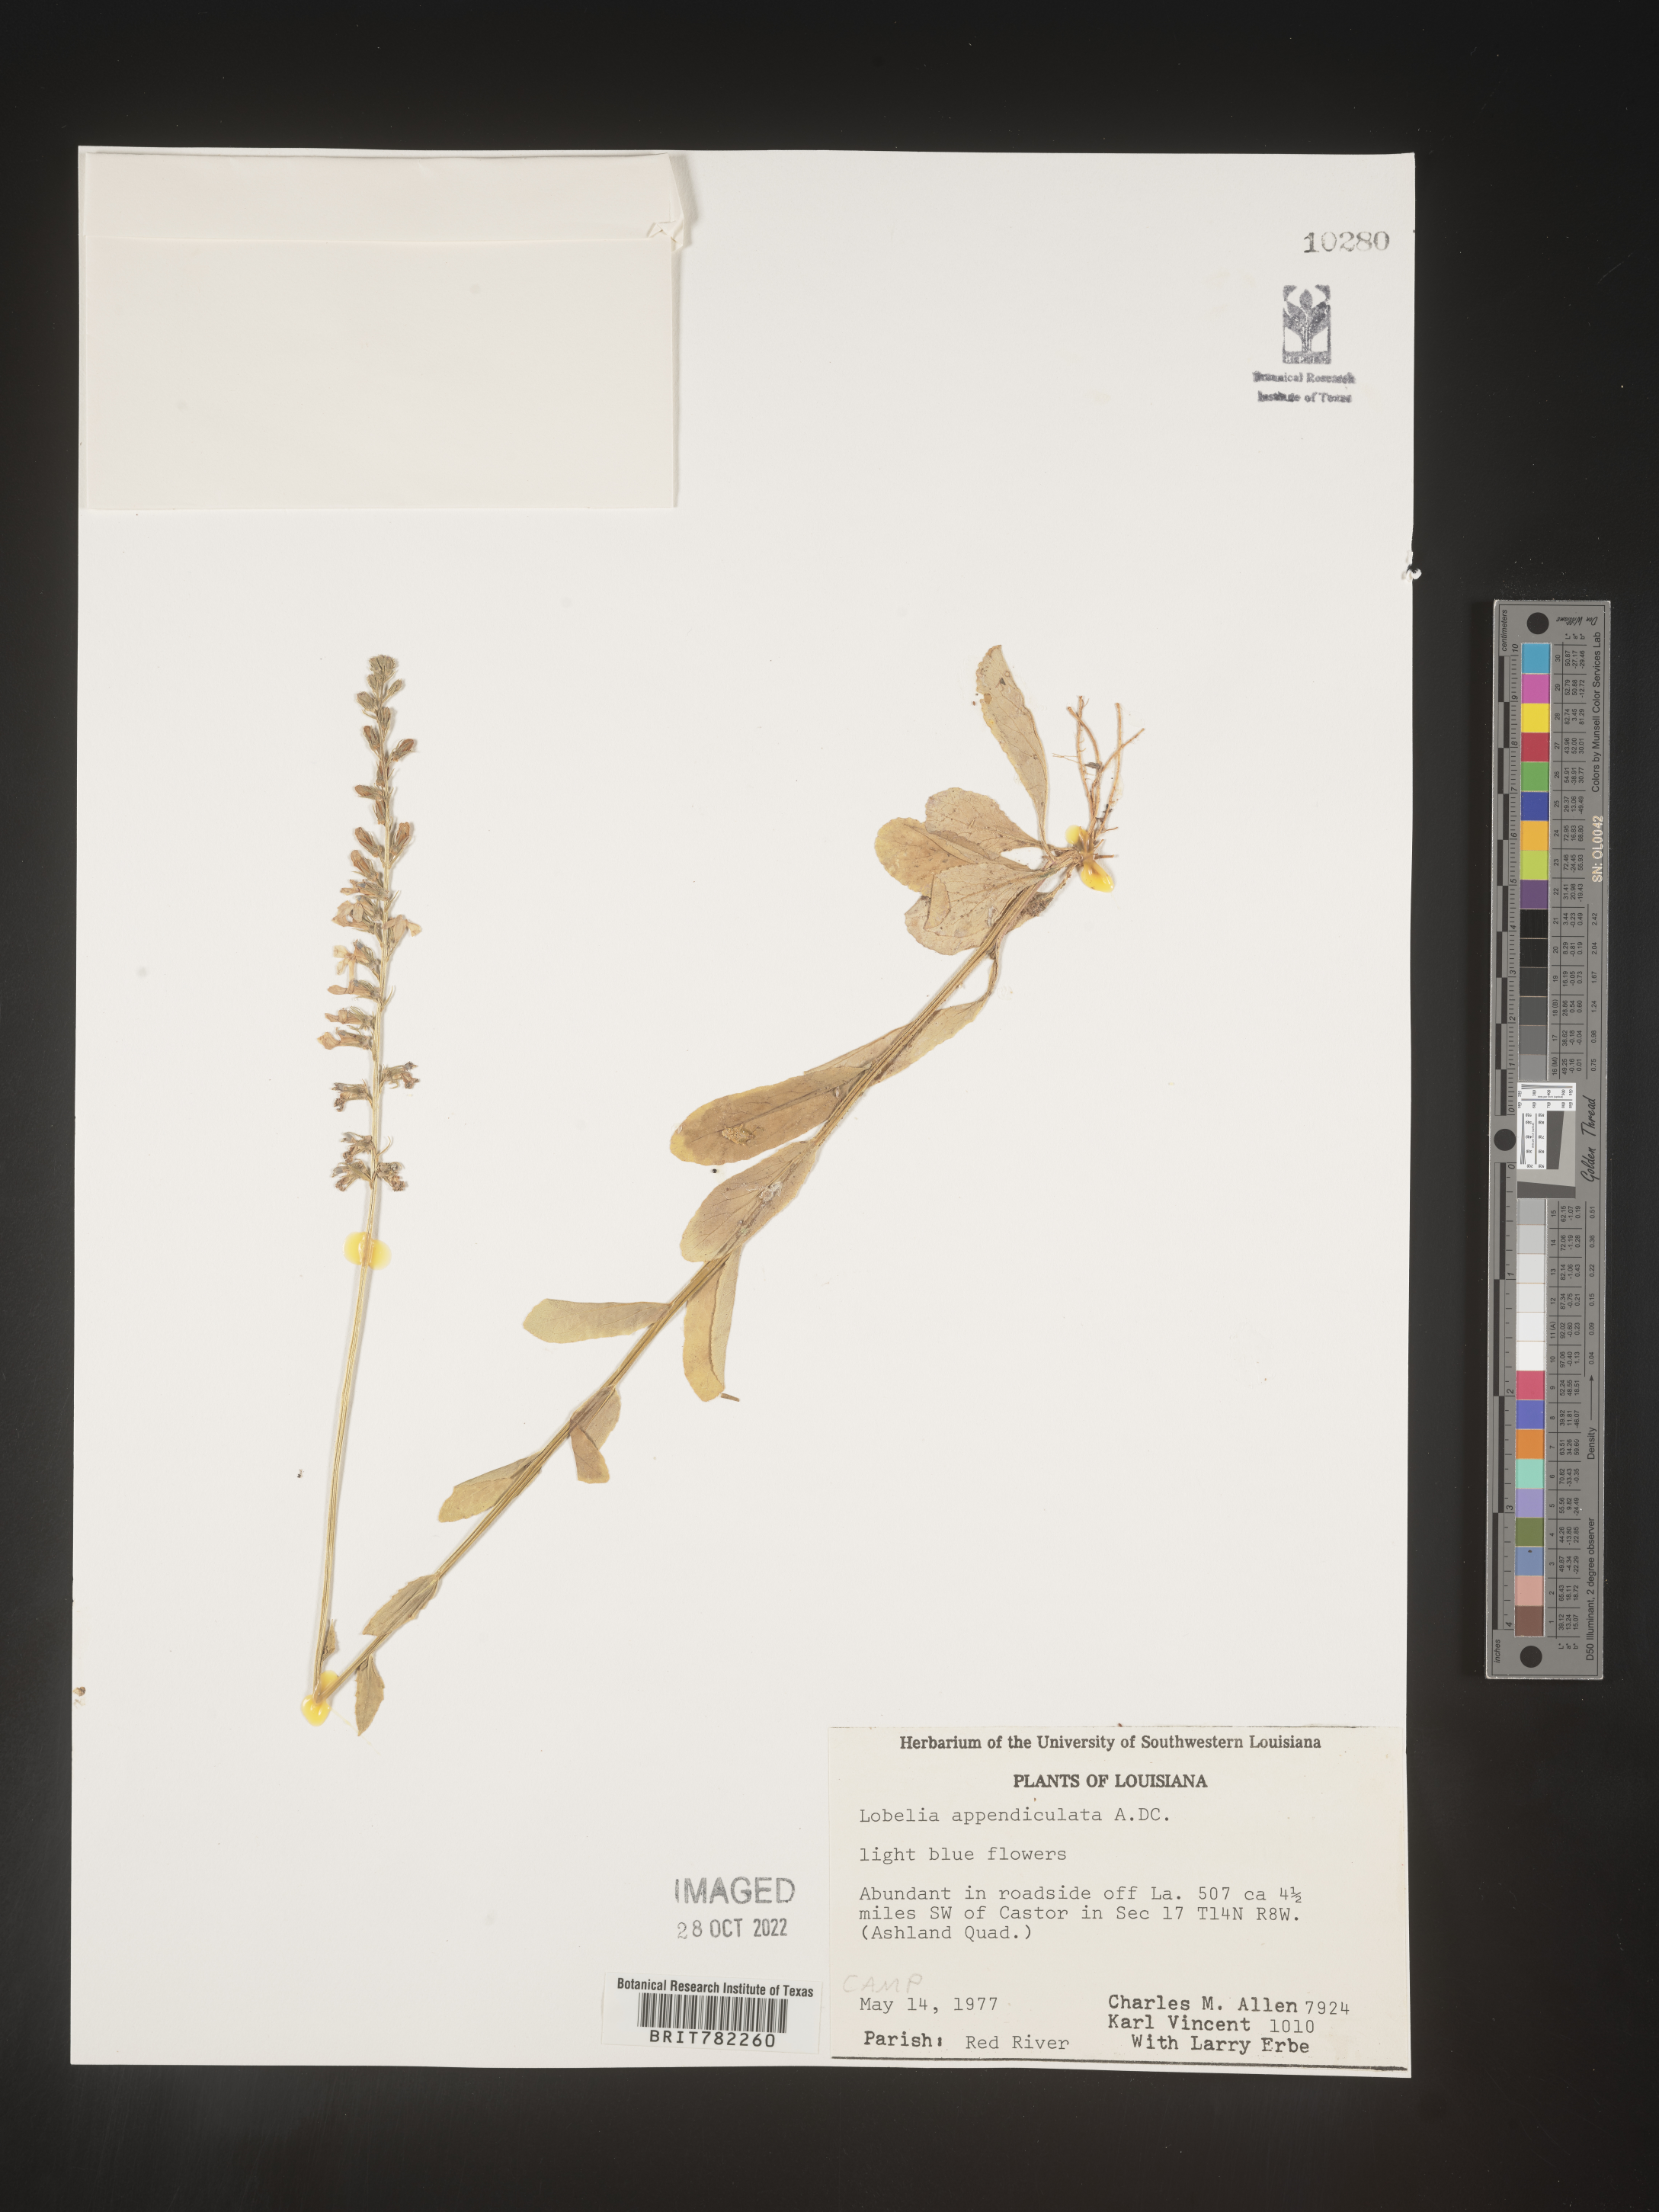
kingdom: Plantae
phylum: Tracheophyta
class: Magnoliopsida
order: Asterales
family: Campanulaceae
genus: Lobelia
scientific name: Lobelia appendiculata
